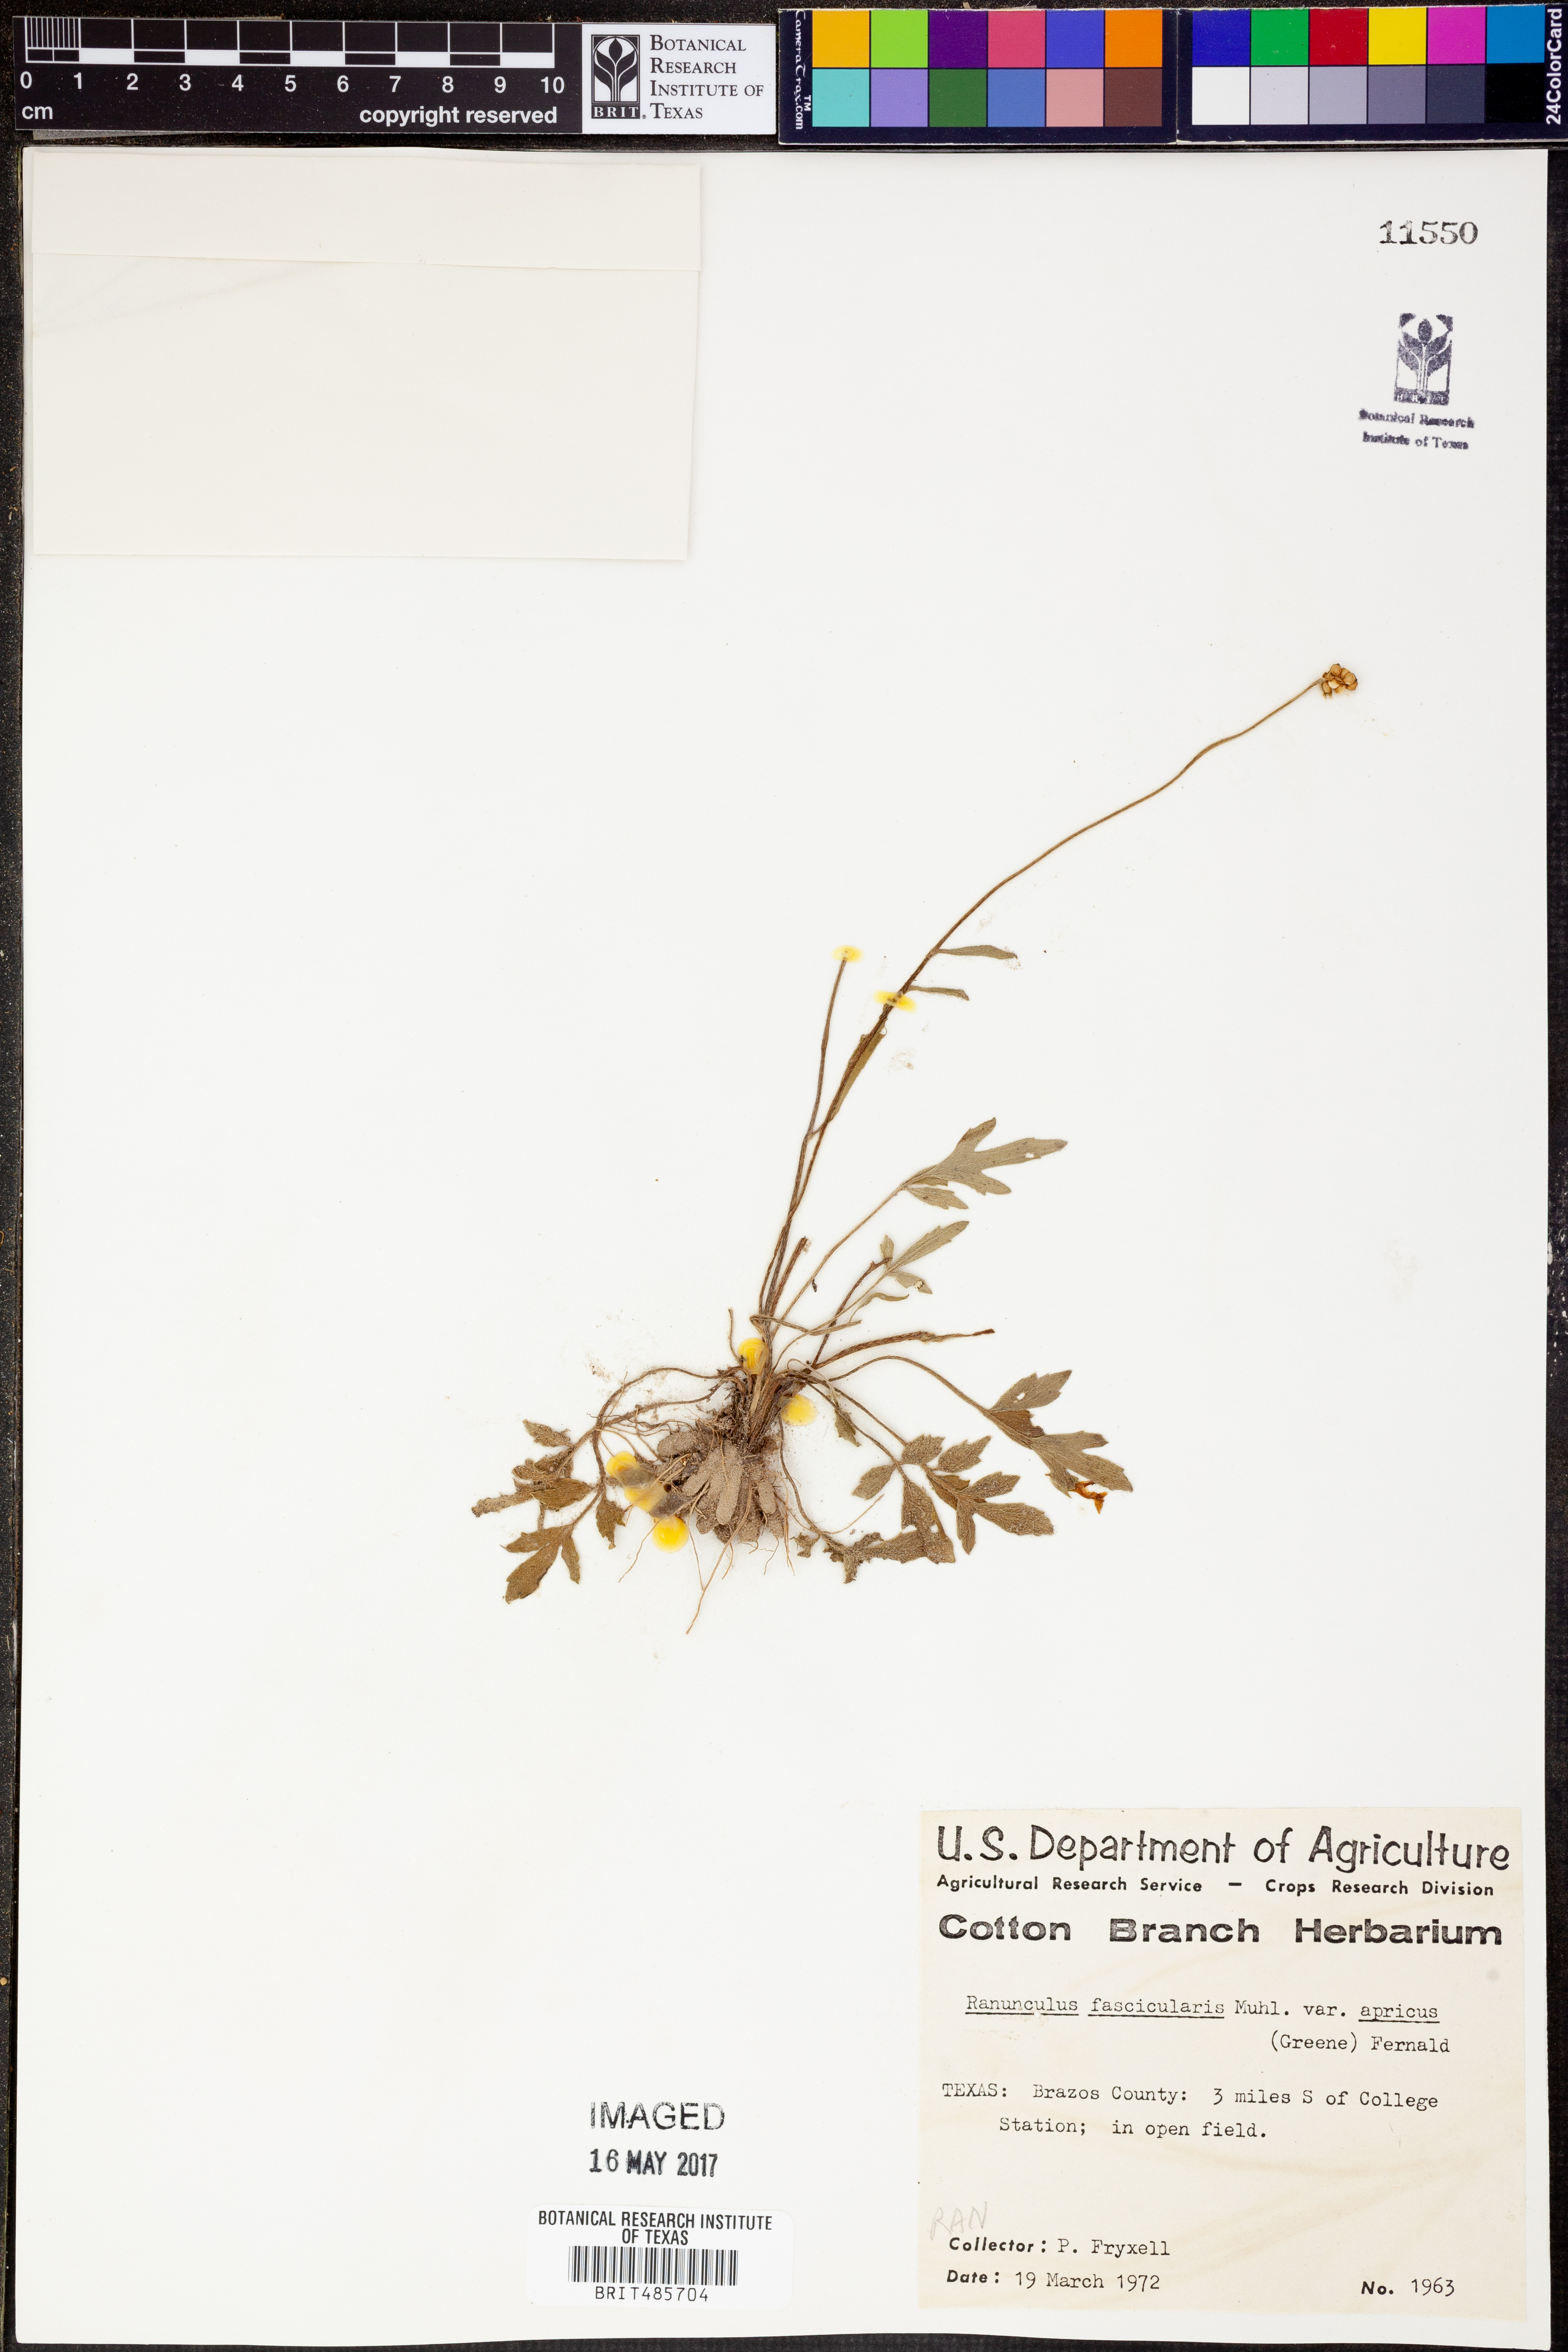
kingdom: Plantae
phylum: Tracheophyta
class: Magnoliopsida
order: Ranunculales
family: Ranunculaceae
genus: Ranunculus
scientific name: Ranunculus fascicularis
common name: Early buttercup
